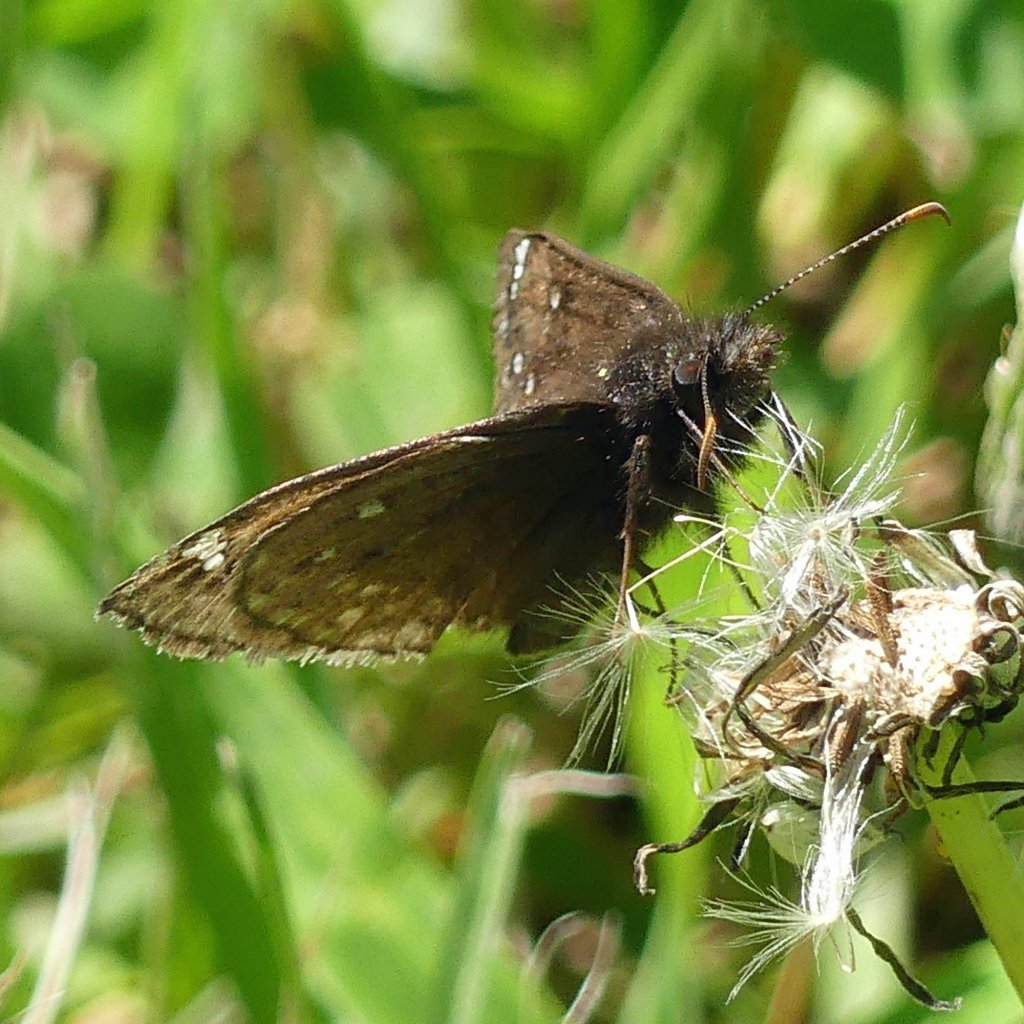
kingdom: Animalia
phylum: Arthropoda
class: Insecta
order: Lepidoptera
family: Hesperiidae
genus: Gesta
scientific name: Gesta
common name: Juvenal's Duskywing
